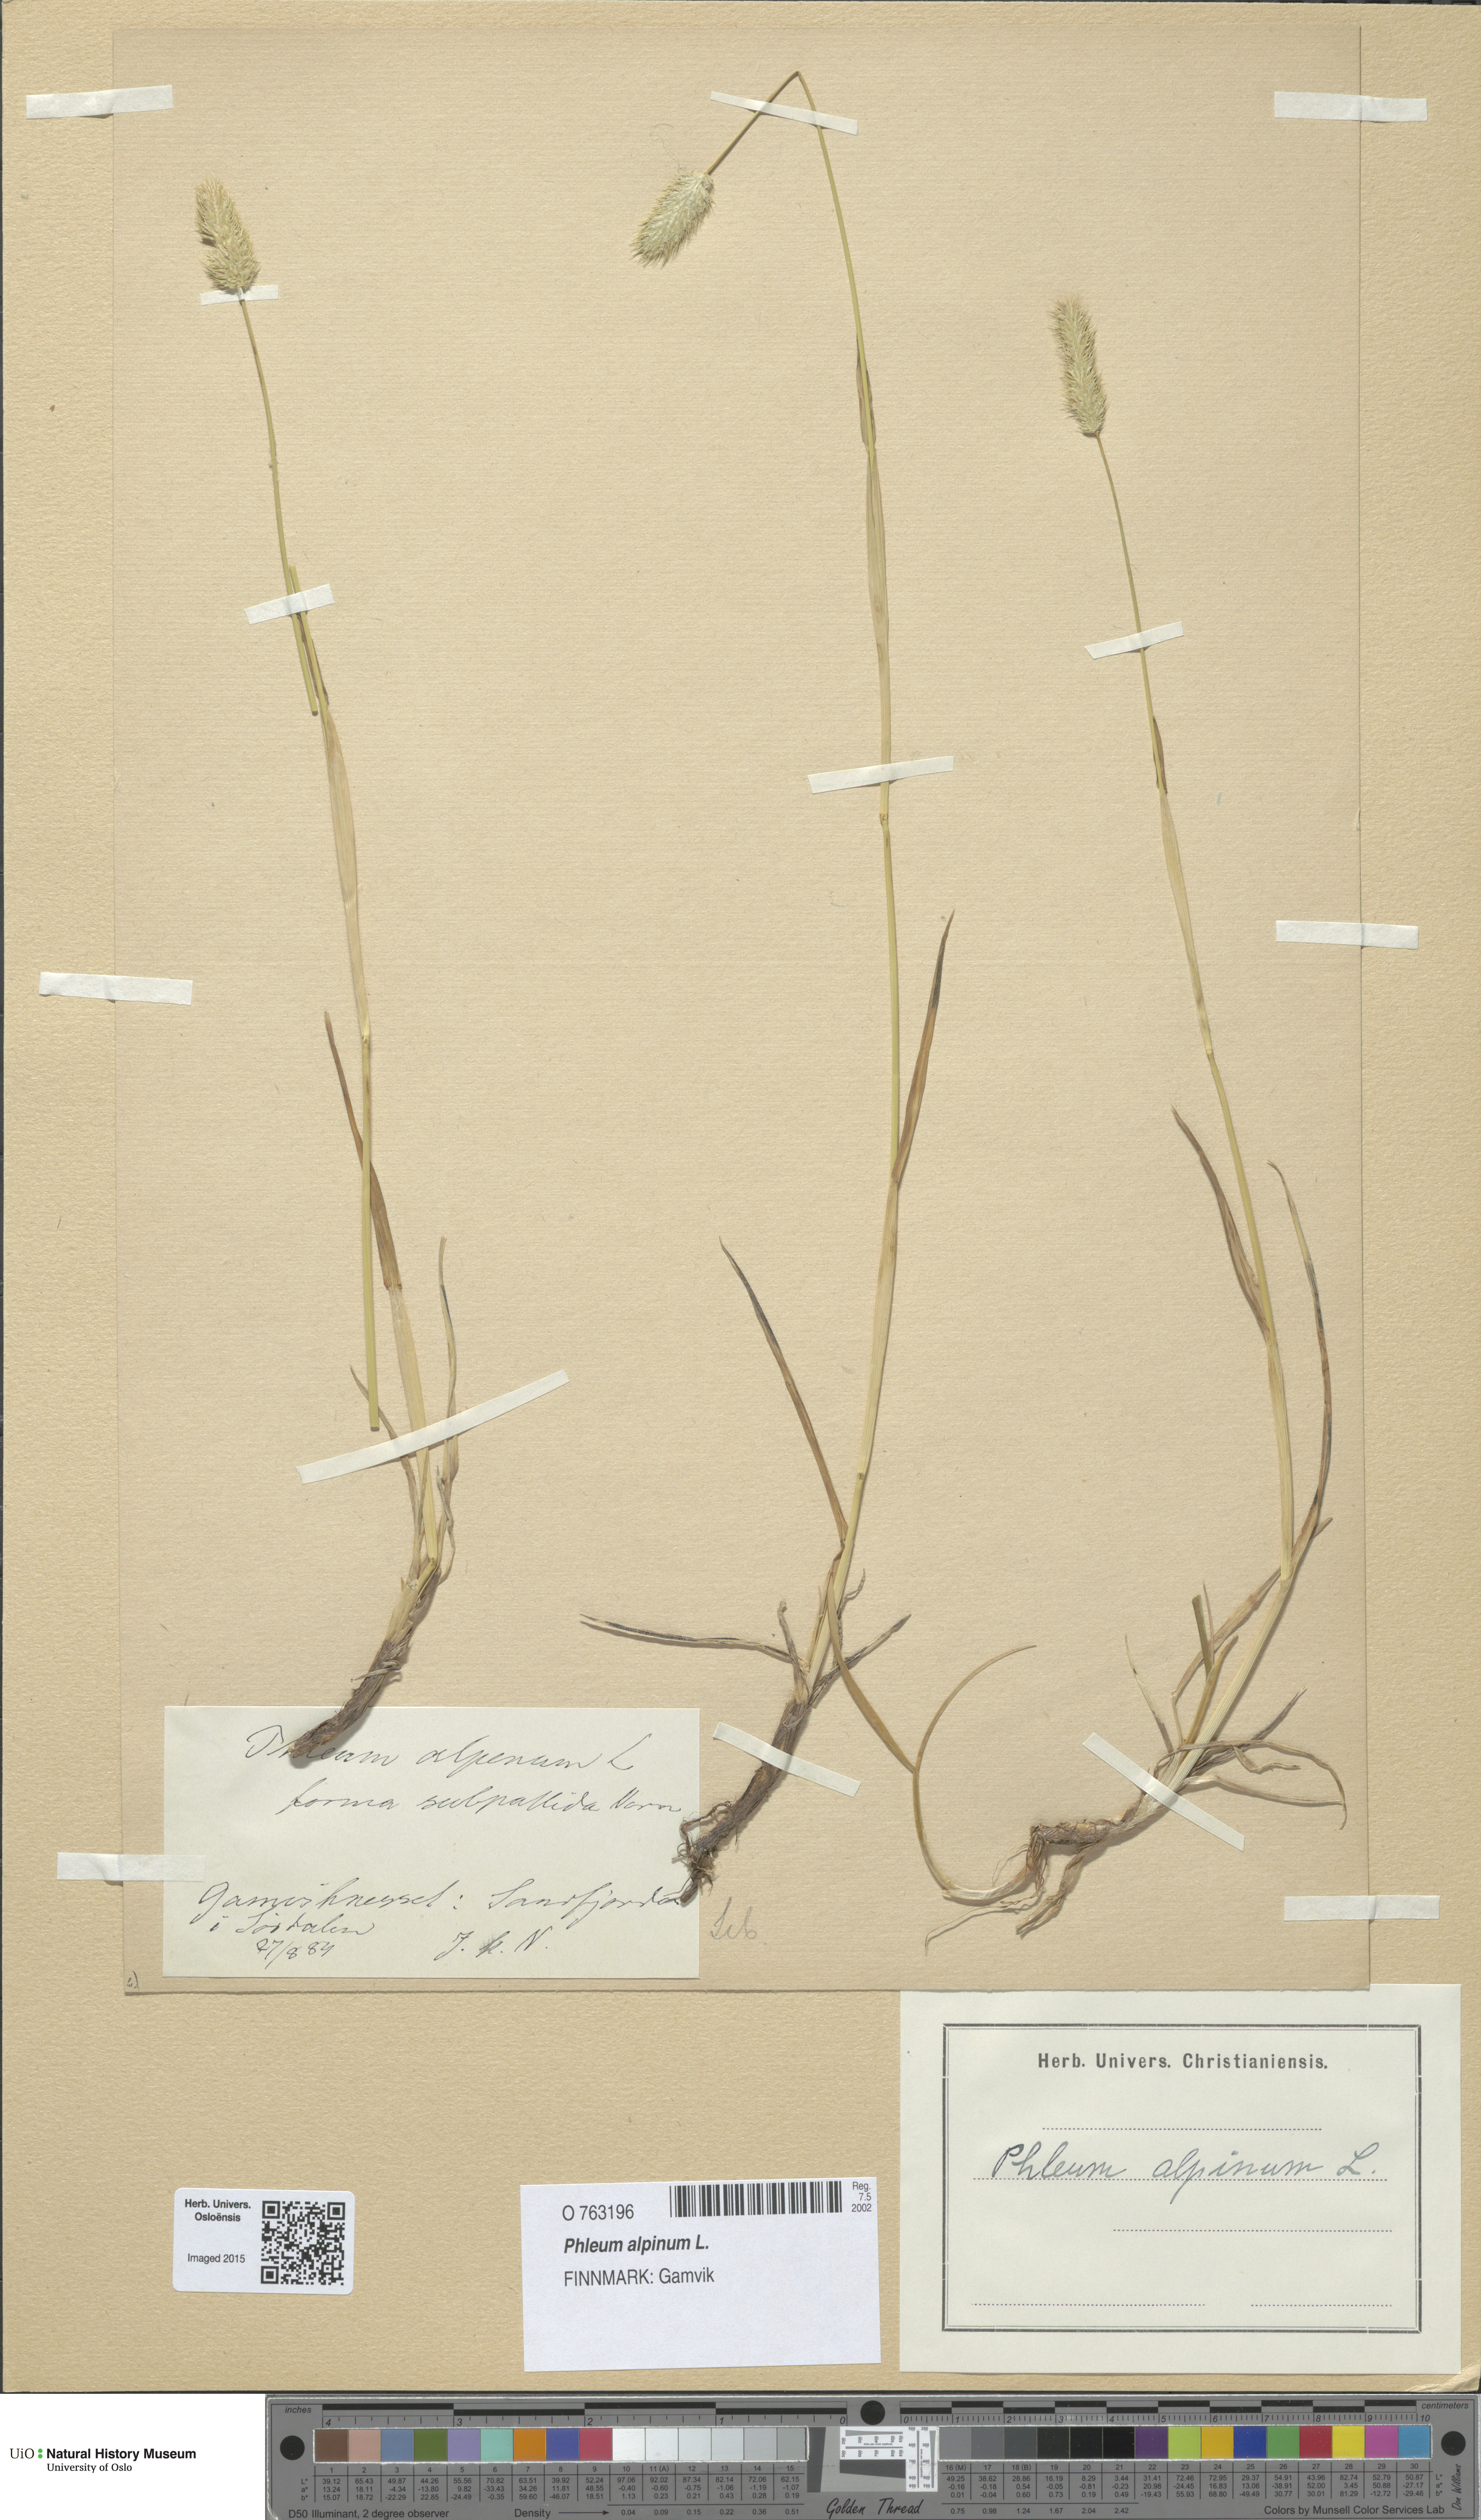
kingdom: Plantae
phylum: Tracheophyta
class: Liliopsida
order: Poales
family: Poaceae
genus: Phleum
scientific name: Phleum alpinum
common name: Alpine cat's-tail
